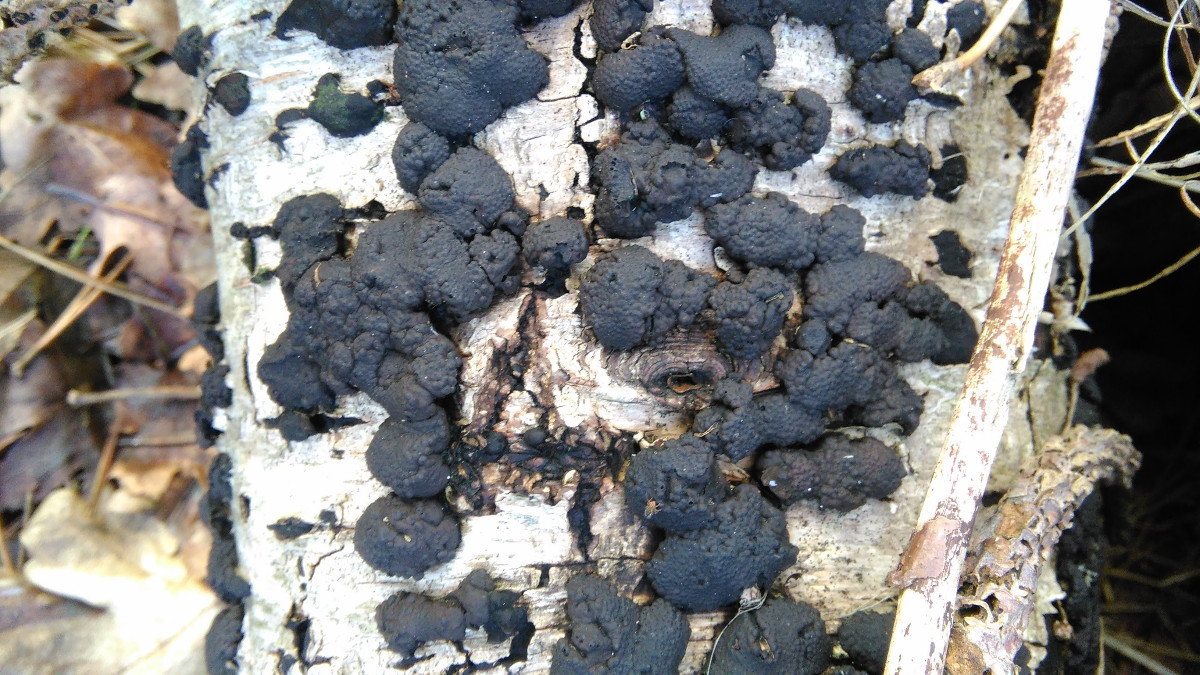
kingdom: Fungi
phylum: Ascomycota
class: Sordariomycetes
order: Xylariales
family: Hypoxylaceae
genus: Jackrogersella
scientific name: Jackrogersella multiformis
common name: foranderlig kulbær
